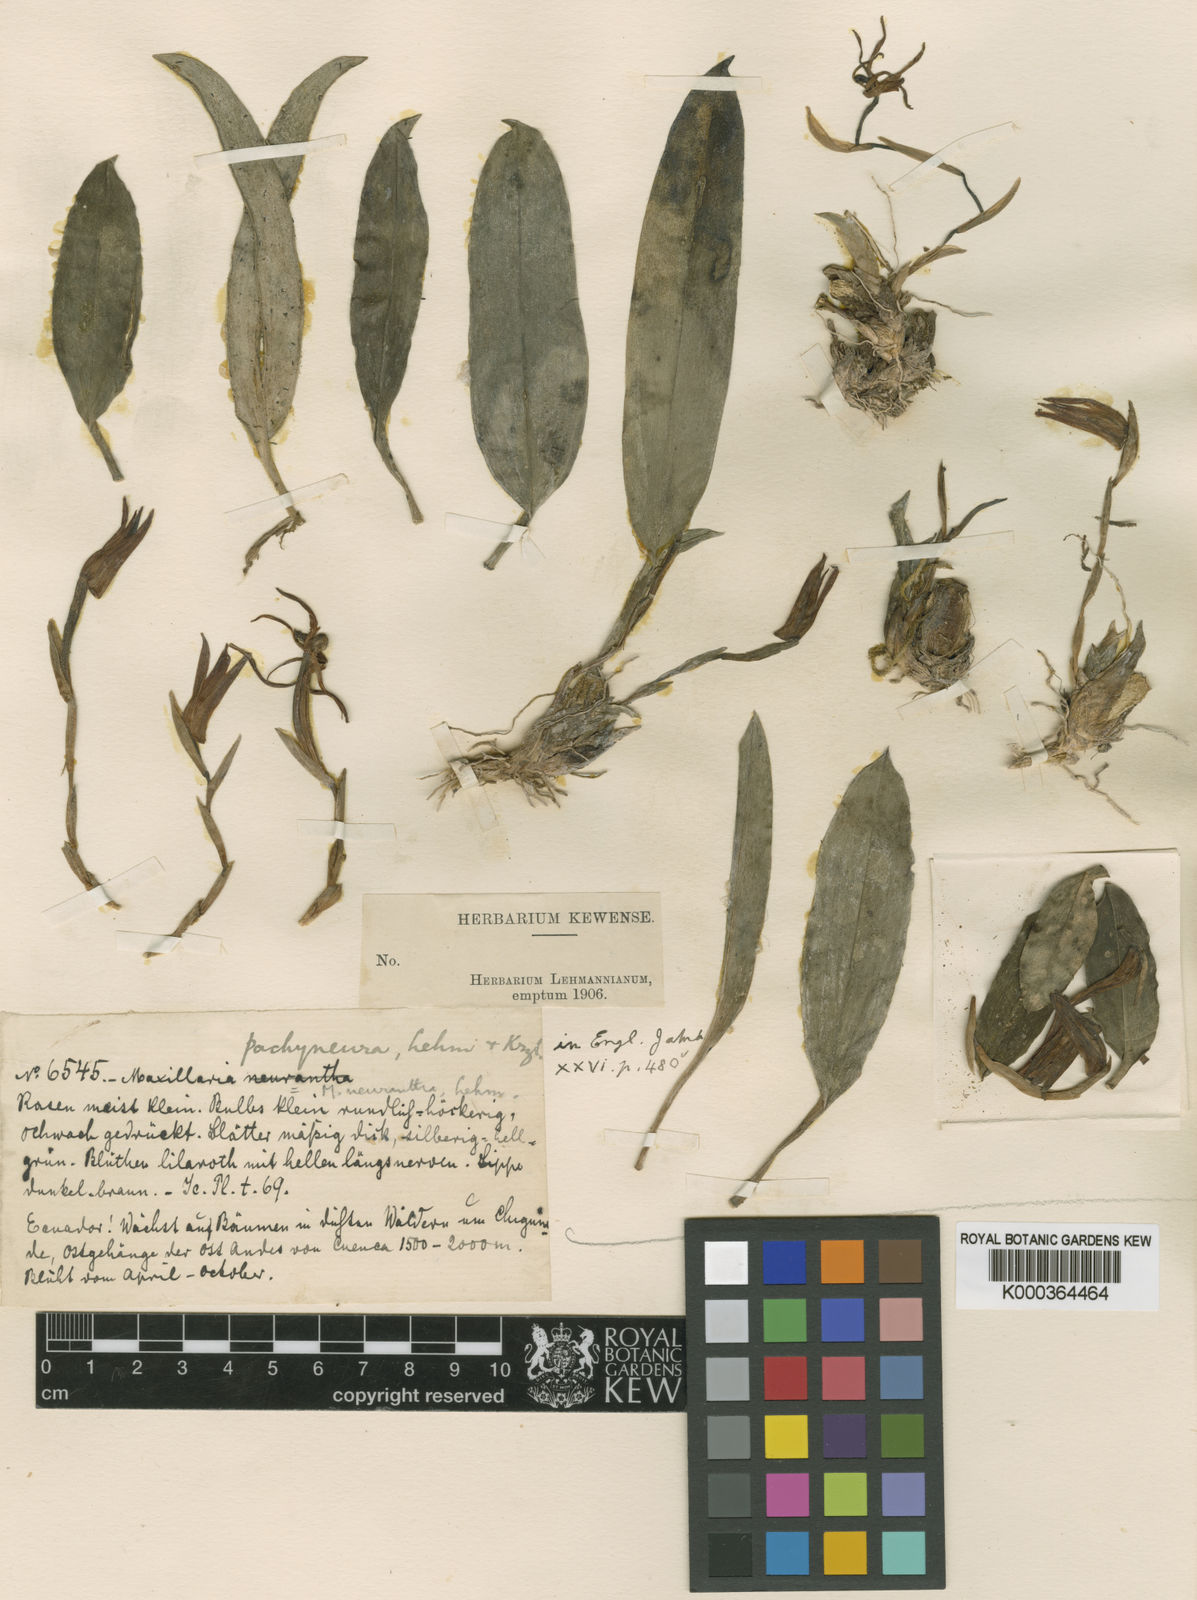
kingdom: Plantae
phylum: Tracheophyta
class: Liliopsida
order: Asparagales
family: Orchidaceae
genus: Maxillaria
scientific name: Maxillaria pachyneura
